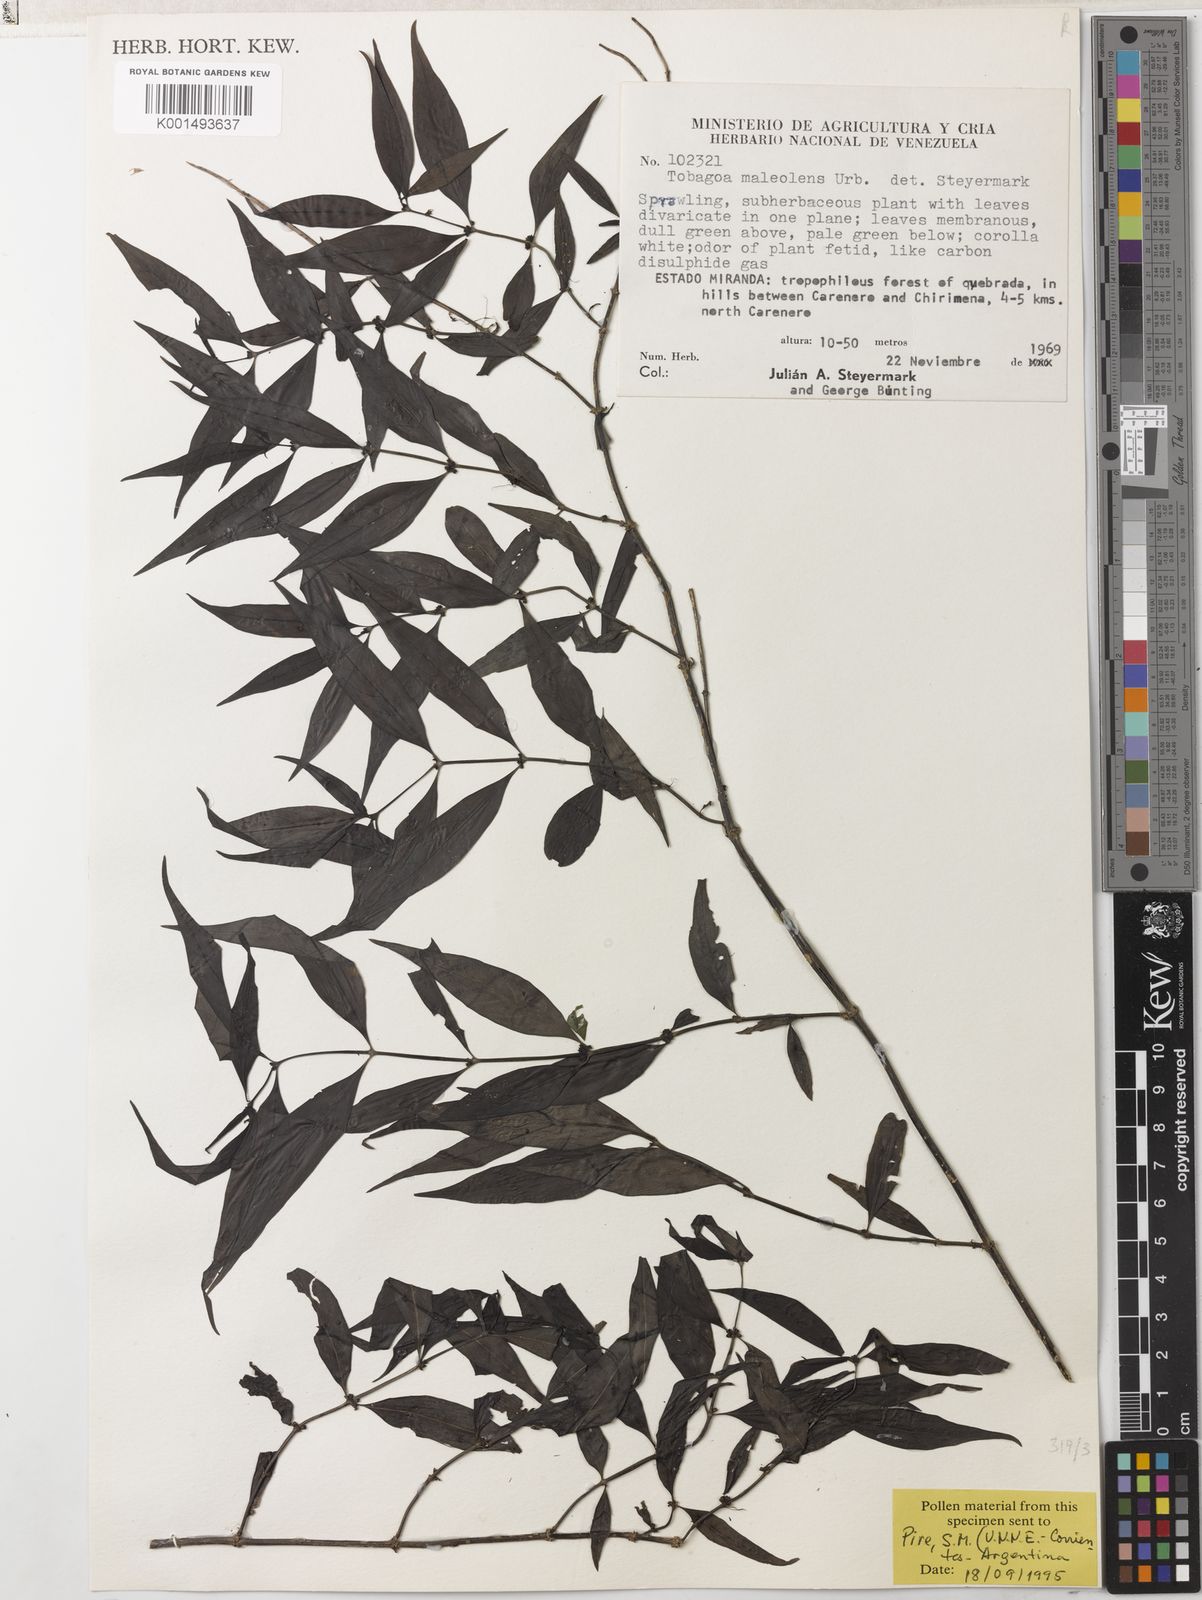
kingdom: Plantae
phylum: Tracheophyta
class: Magnoliopsida
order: Gentianales
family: Rubiaceae
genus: Tobagoa
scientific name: Tobagoa maleolens
